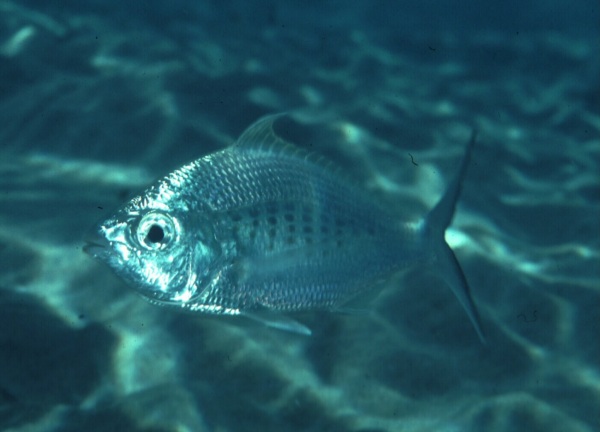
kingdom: Animalia
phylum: Chordata
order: Perciformes
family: Gerreidae
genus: Gerres
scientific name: Gerres oyena
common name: Common silver-biddy
